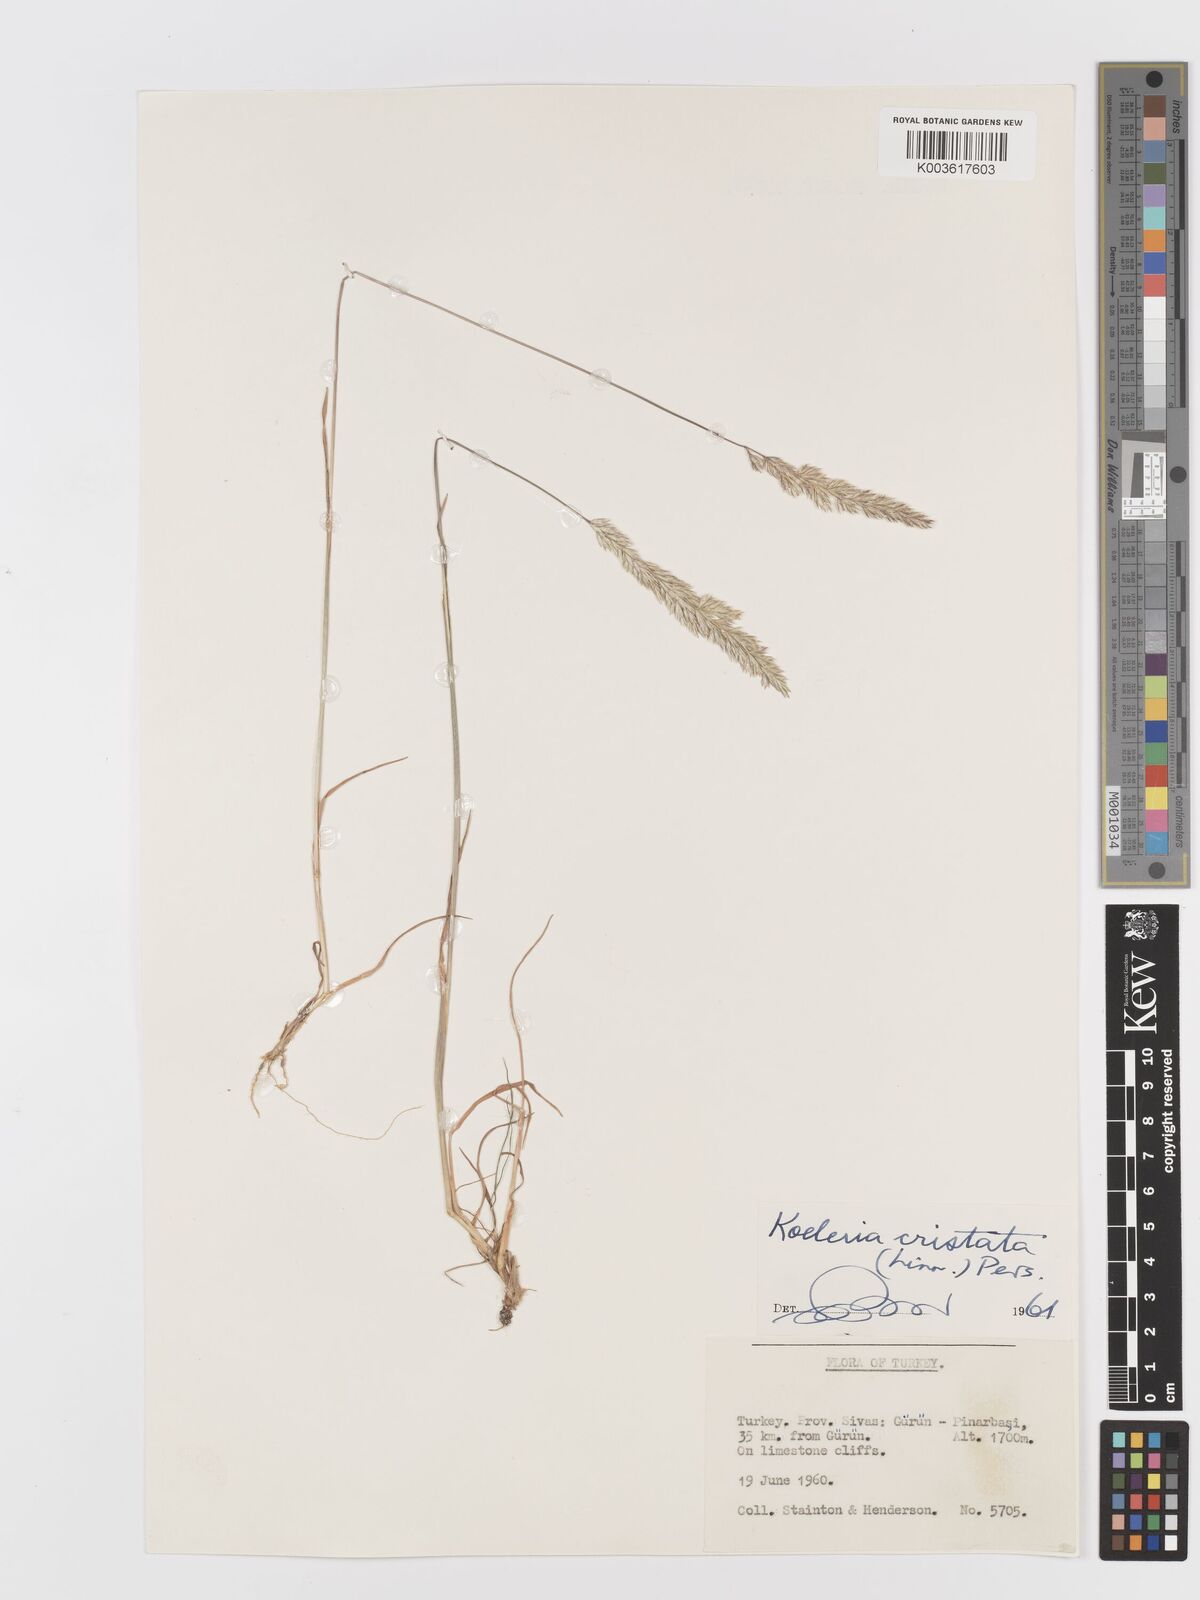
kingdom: Plantae
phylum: Tracheophyta
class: Liliopsida
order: Poales
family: Poaceae
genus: Koeleria
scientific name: Koeleria macrantha
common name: Crested hair-grass
